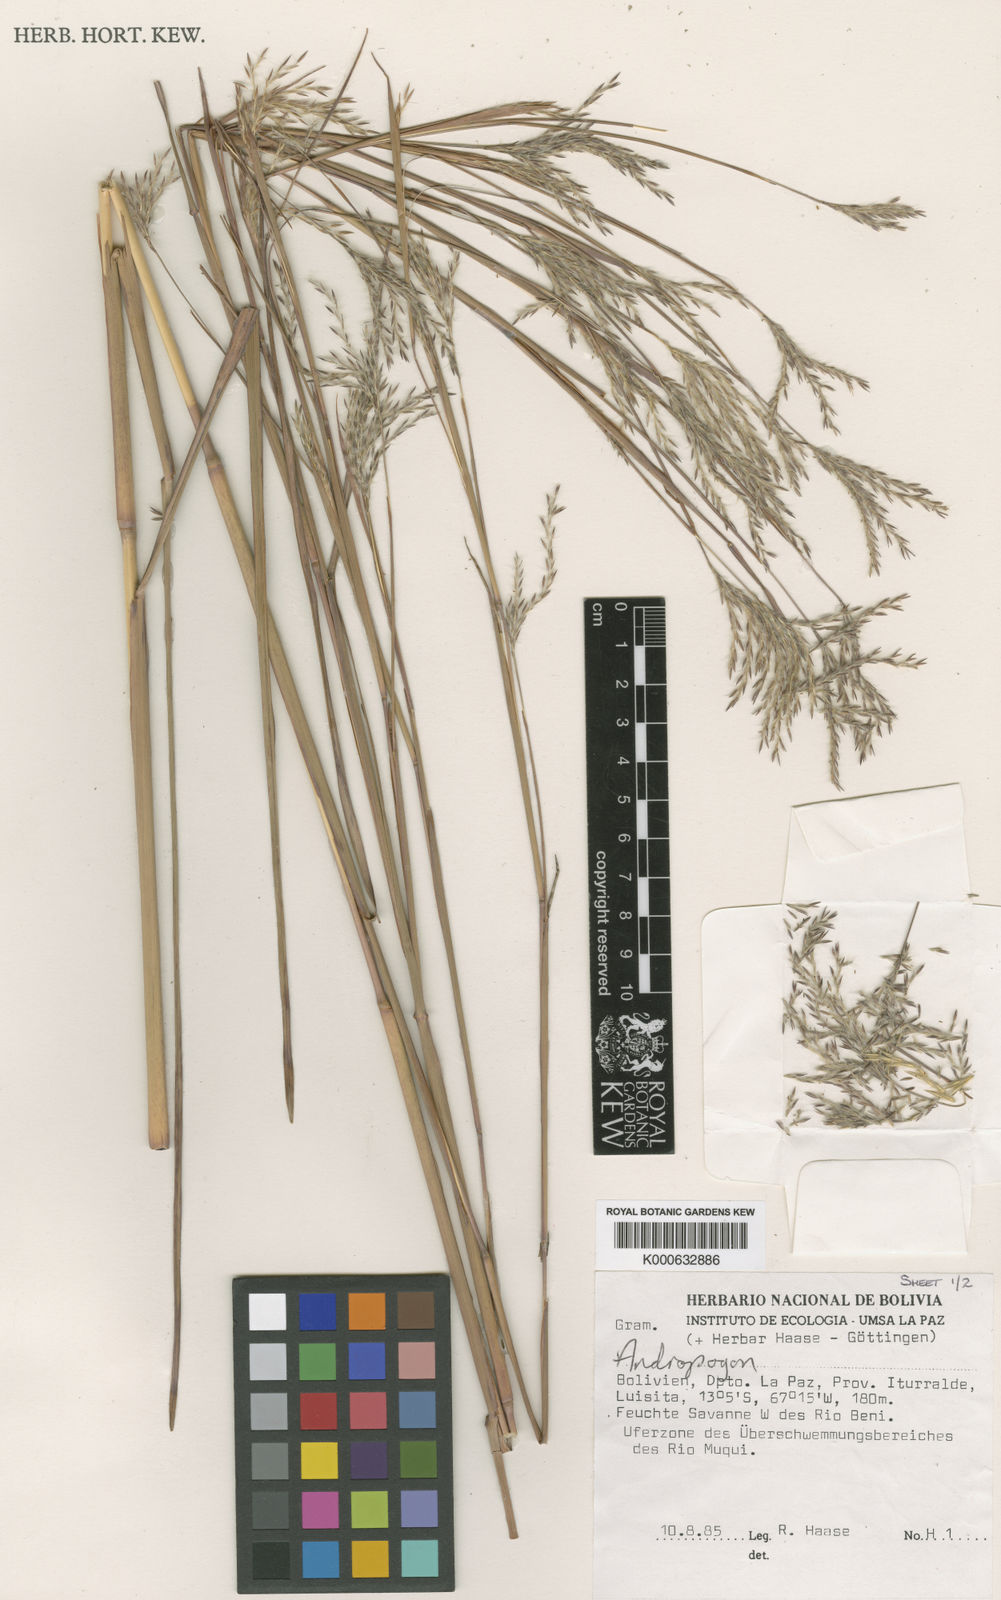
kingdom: Plantae
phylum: Tracheophyta
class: Liliopsida
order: Poales
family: Poaceae
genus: Andropogon
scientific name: Andropogon multiflorus
